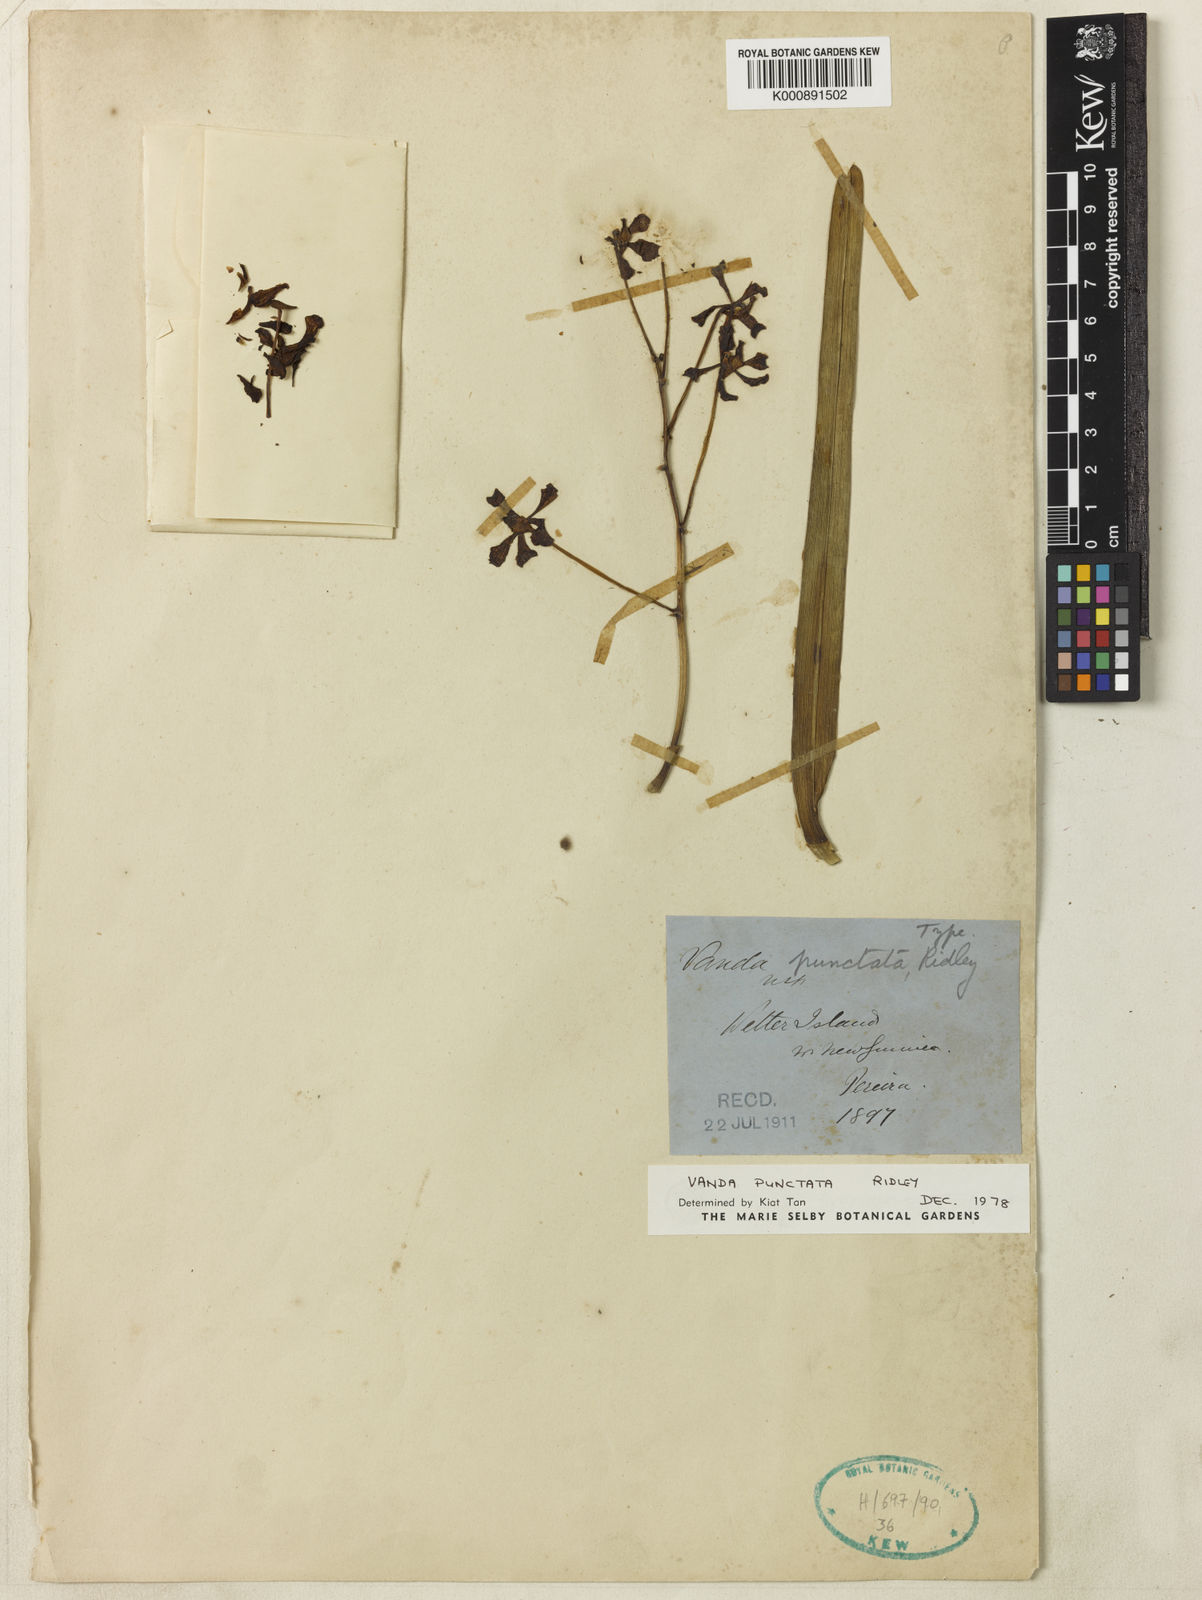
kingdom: Plantae
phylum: Tracheophyta
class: Liliopsida
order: Asparagales
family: Orchidaceae
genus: Vanda
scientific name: Vanda punctata
